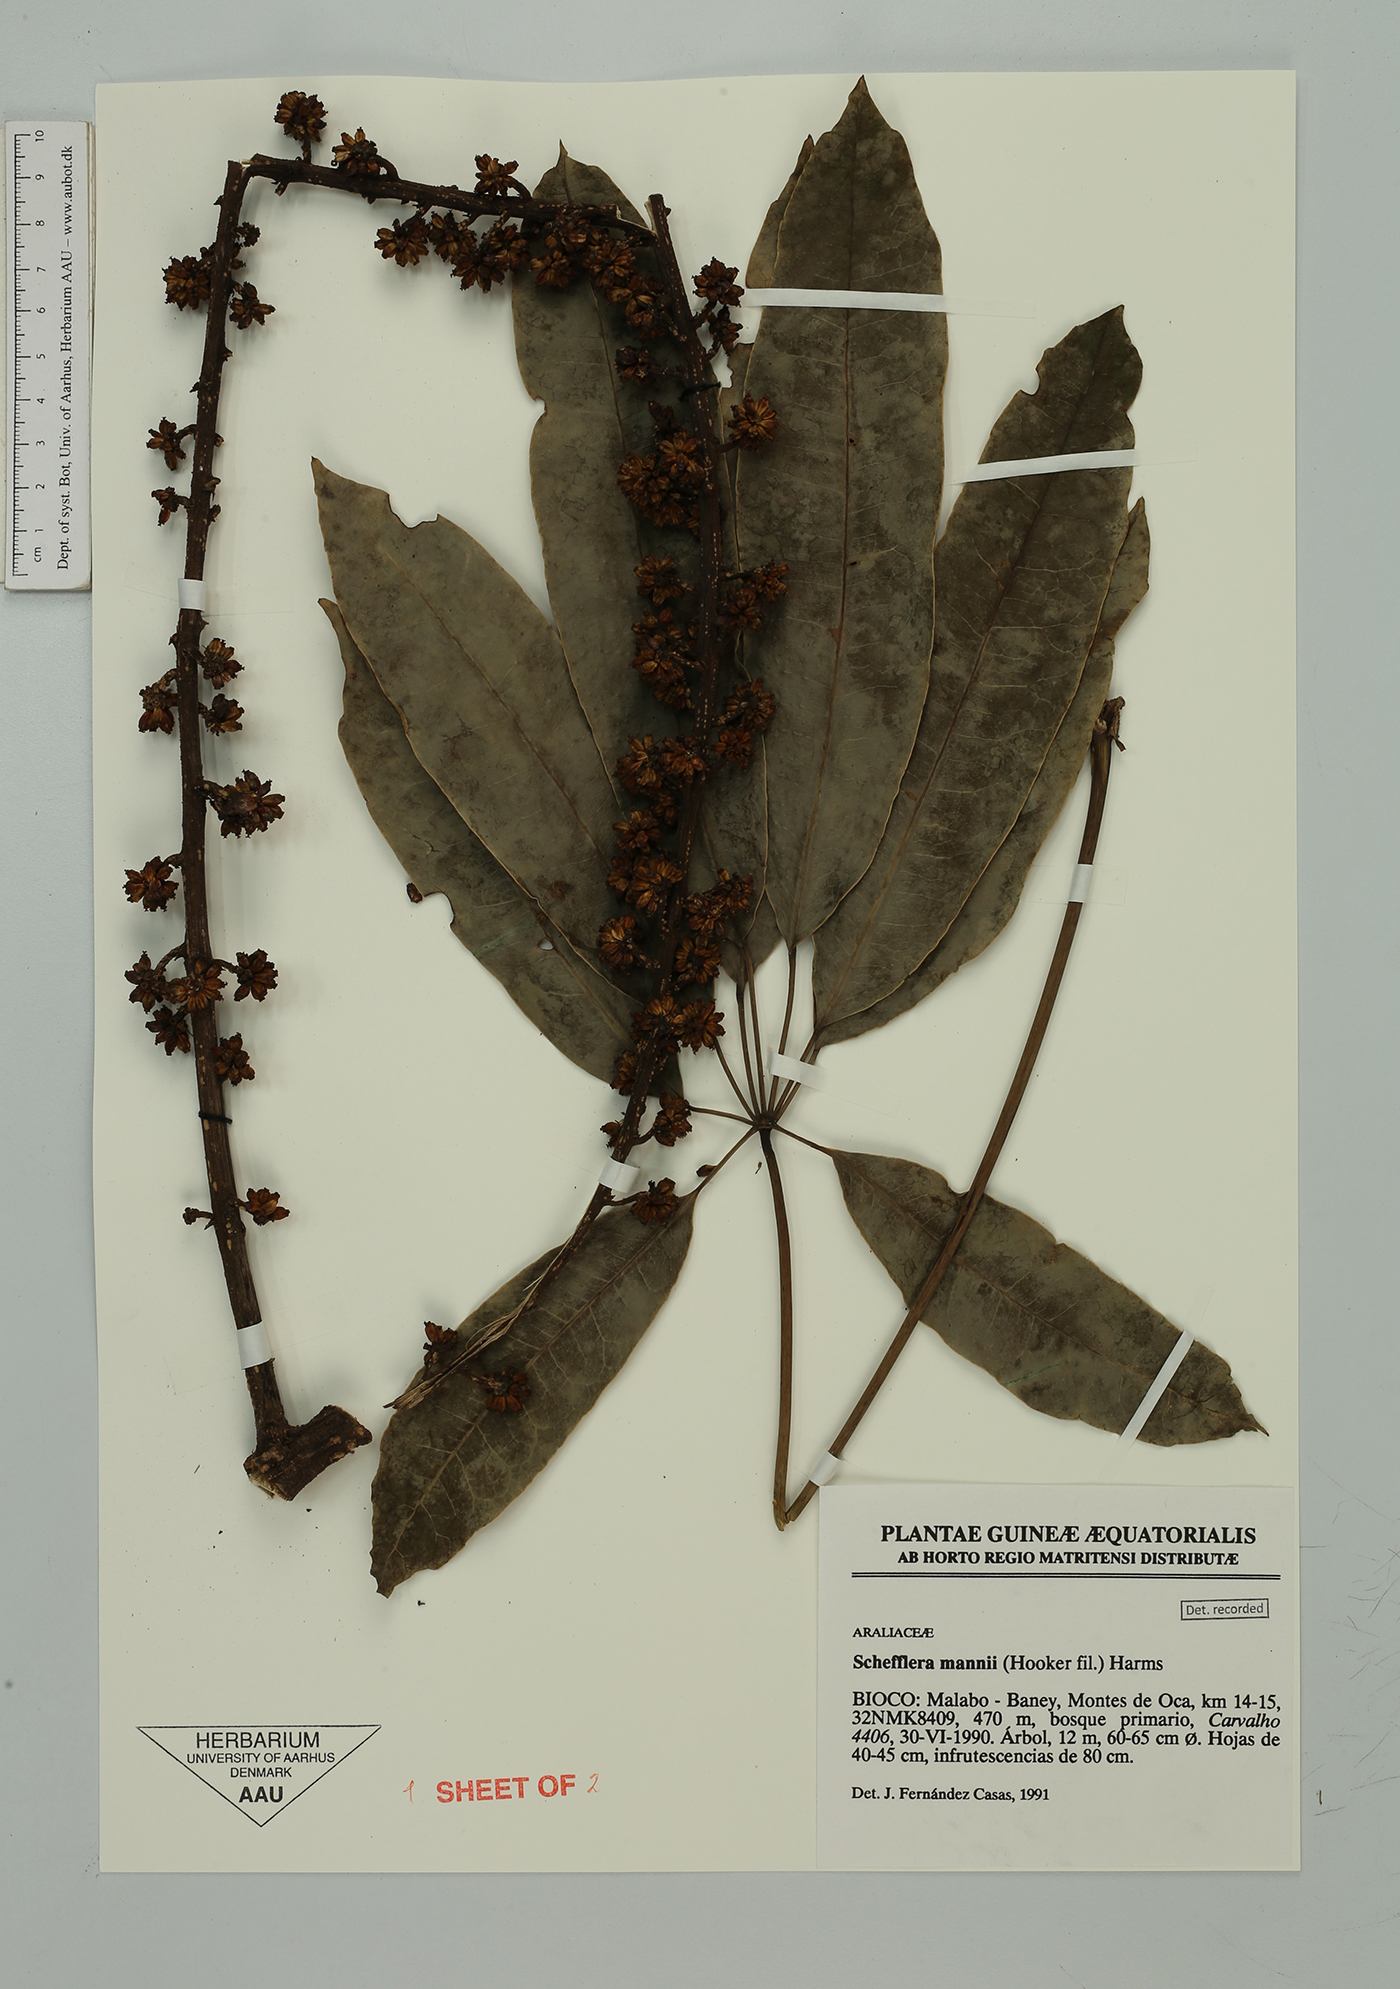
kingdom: Plantae
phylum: Tracheophyta
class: Magnoliopsida
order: Apiales
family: Araliaceae
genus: Astropanax
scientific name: Astropanax mannii
